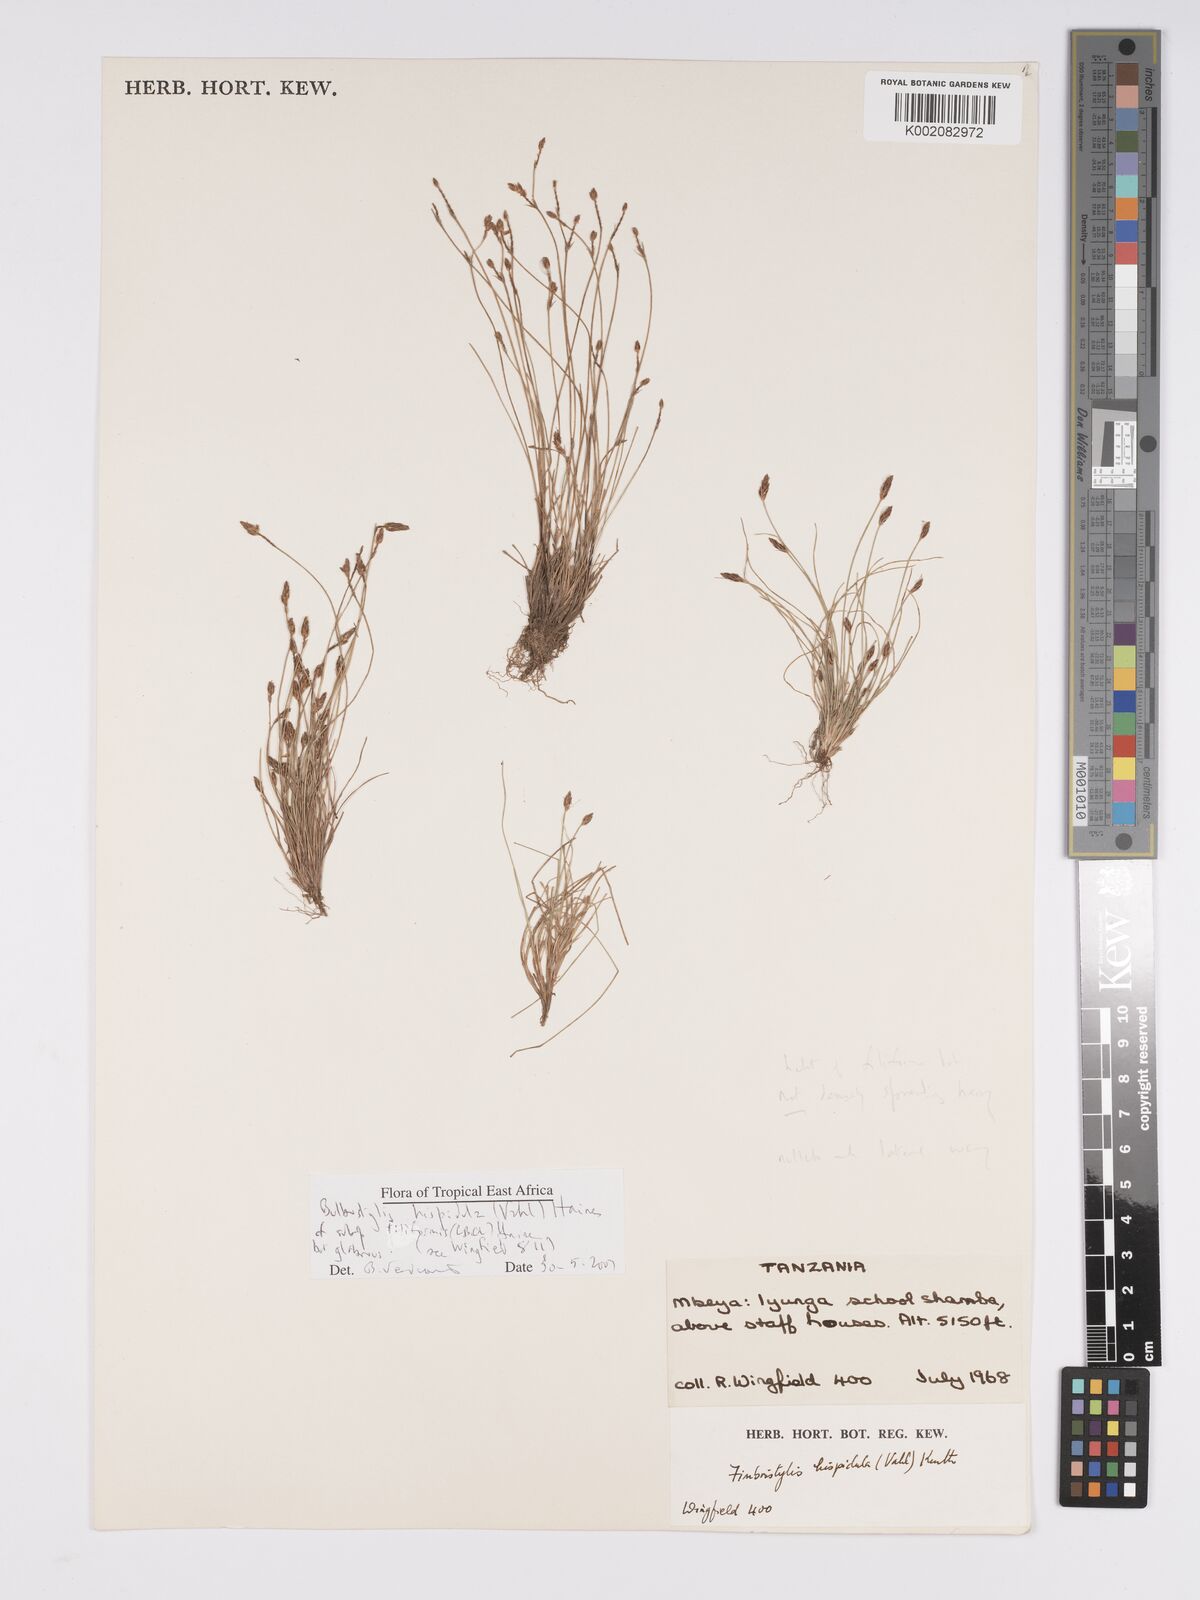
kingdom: Plantae
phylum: Tracheophyta
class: Liliopsida
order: Poales
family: Cyperaceae
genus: Bulbostylis
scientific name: Bulbostylis hispidula
